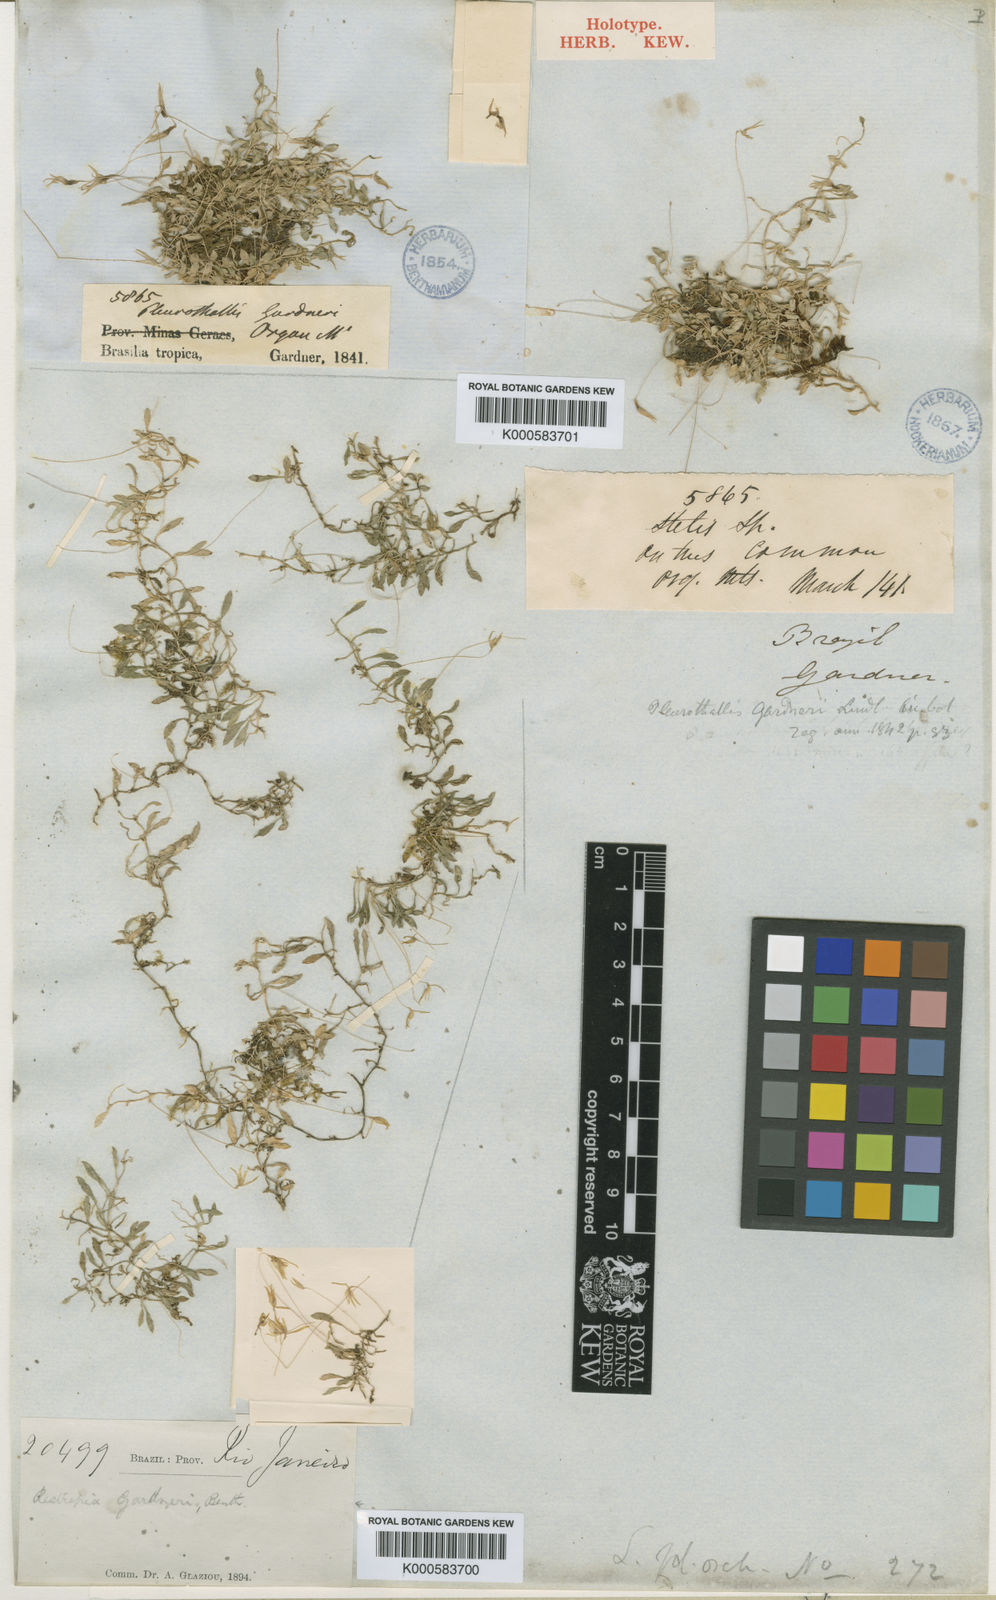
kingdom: Plantae
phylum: Tracheophyta
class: Liliopsida
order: Asparagales
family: Orchidaceae
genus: Barbosella
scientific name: Barbosella gardneri
